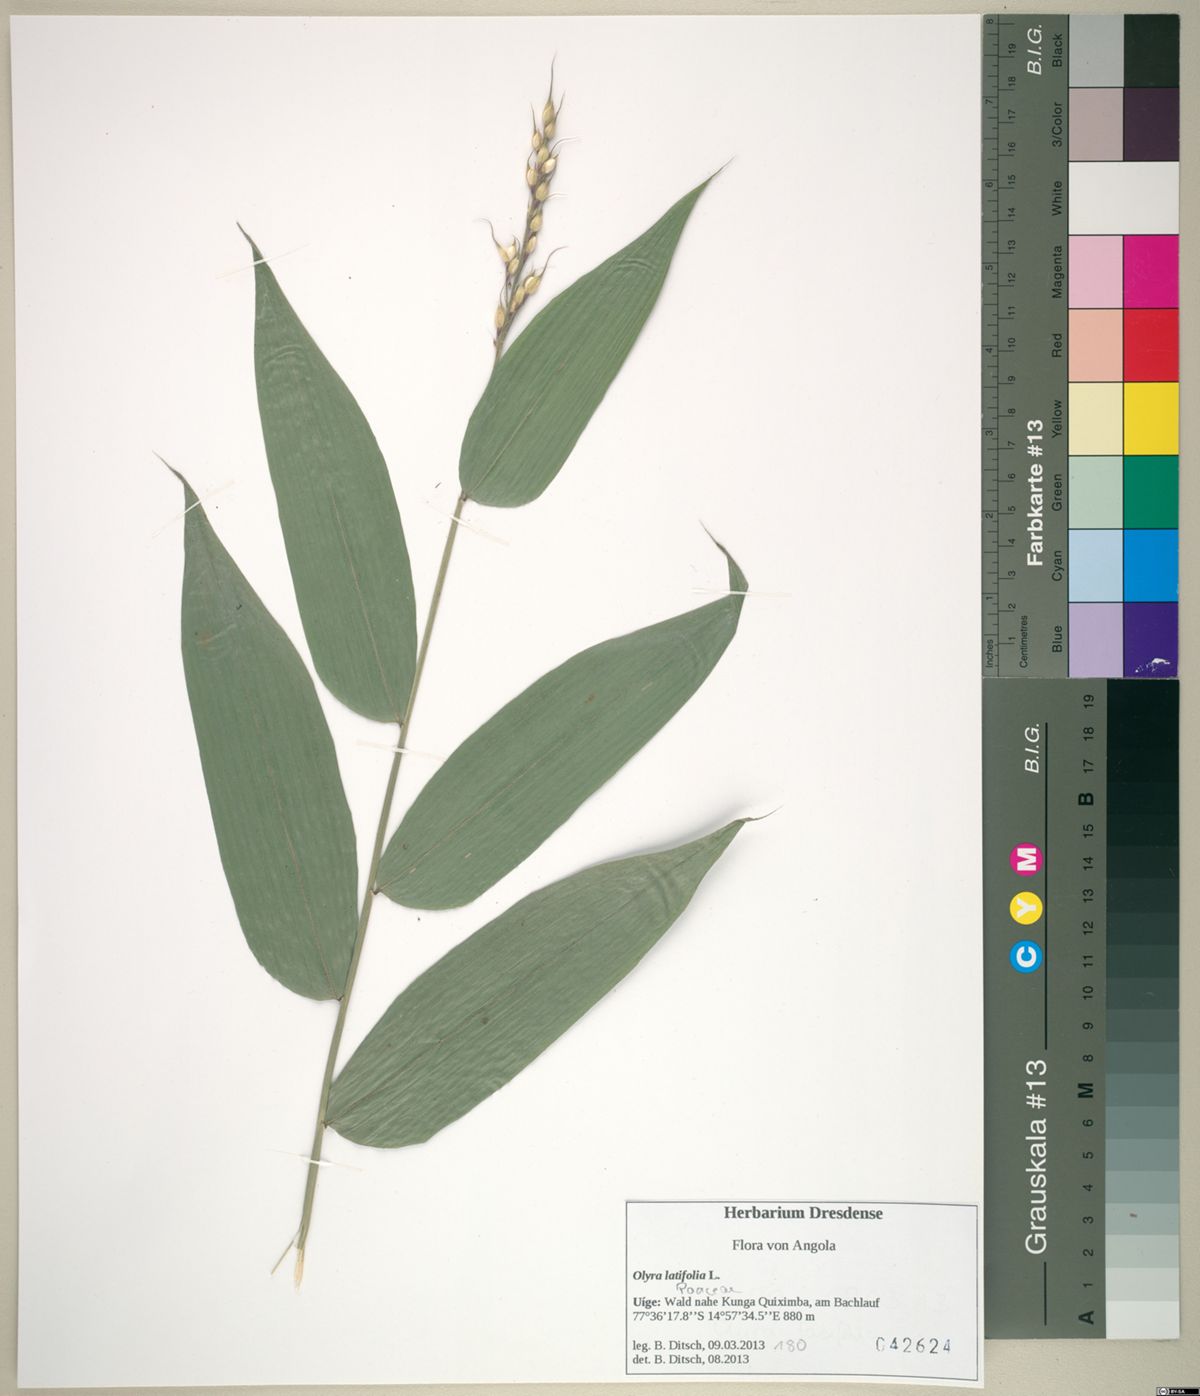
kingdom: Plantae
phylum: Tracheophyta
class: Liliopsida
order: Poales
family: Poaceae
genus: Olyra
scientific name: Olyra latifolia
